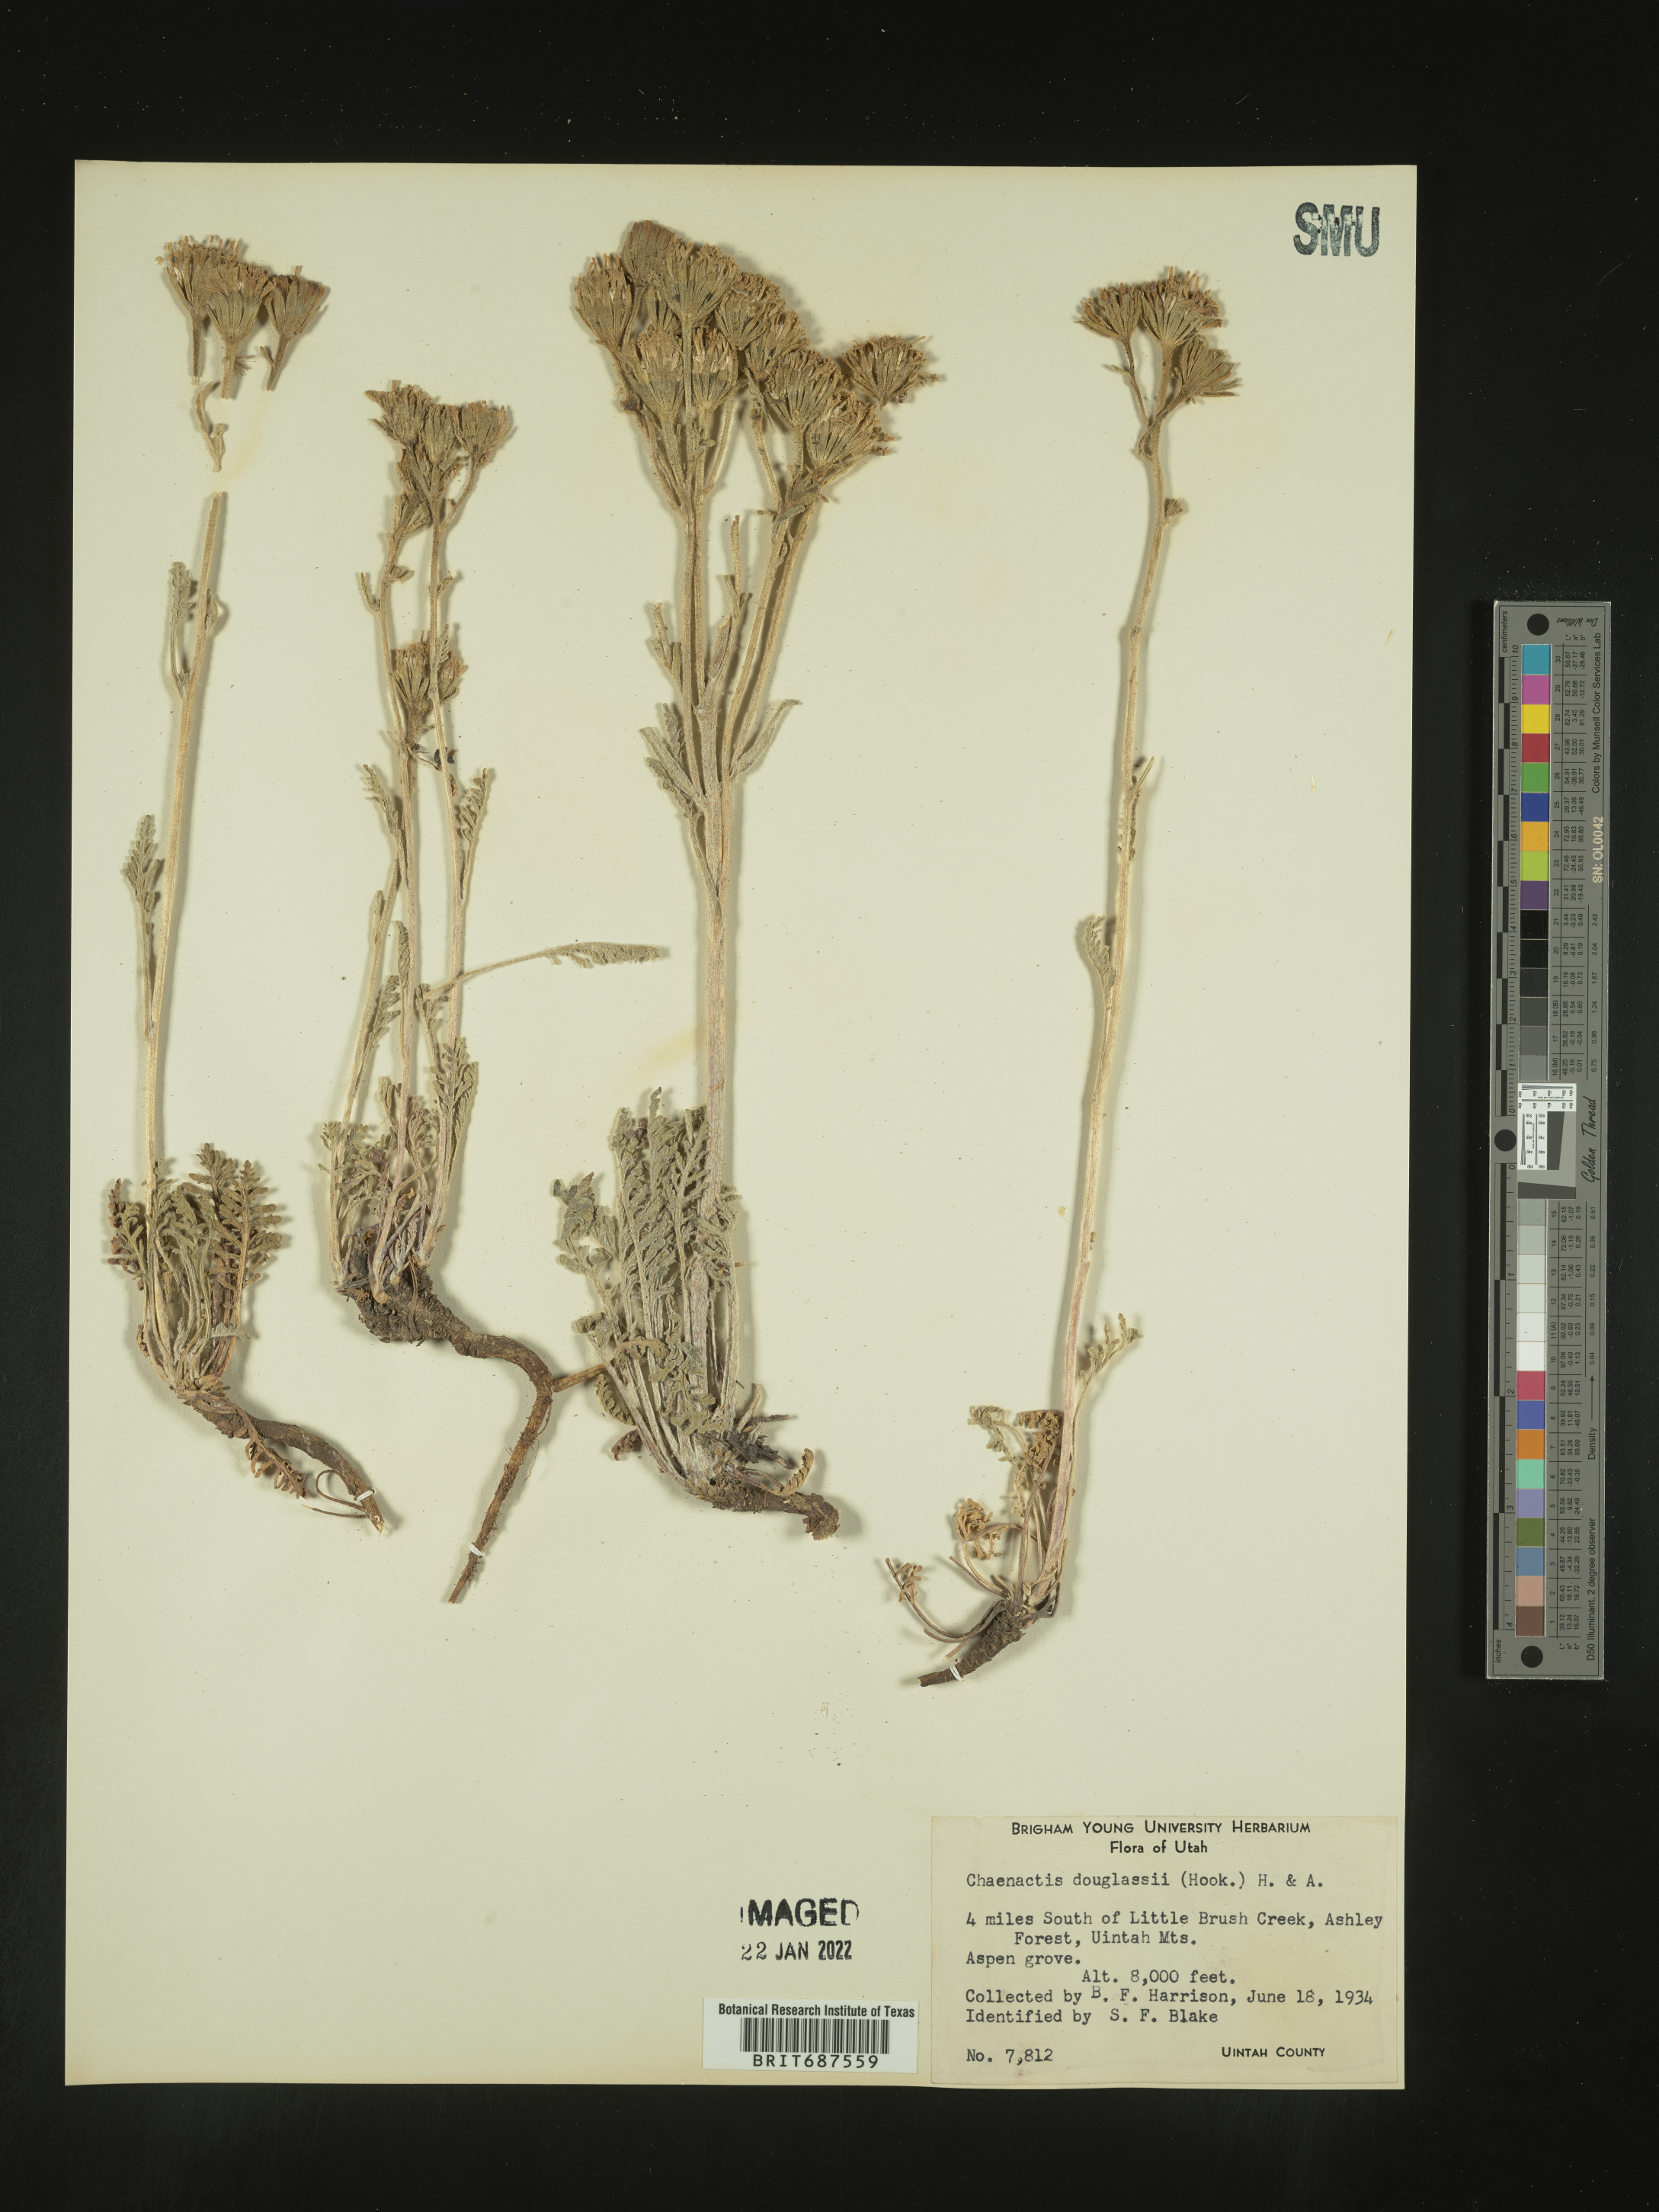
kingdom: Plantae
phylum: Tracheophyta
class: Magnoliopsida
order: Asterales
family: Asteraceae
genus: Chaenactis
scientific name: Chaenactis douglasii
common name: Hoary pincushion
